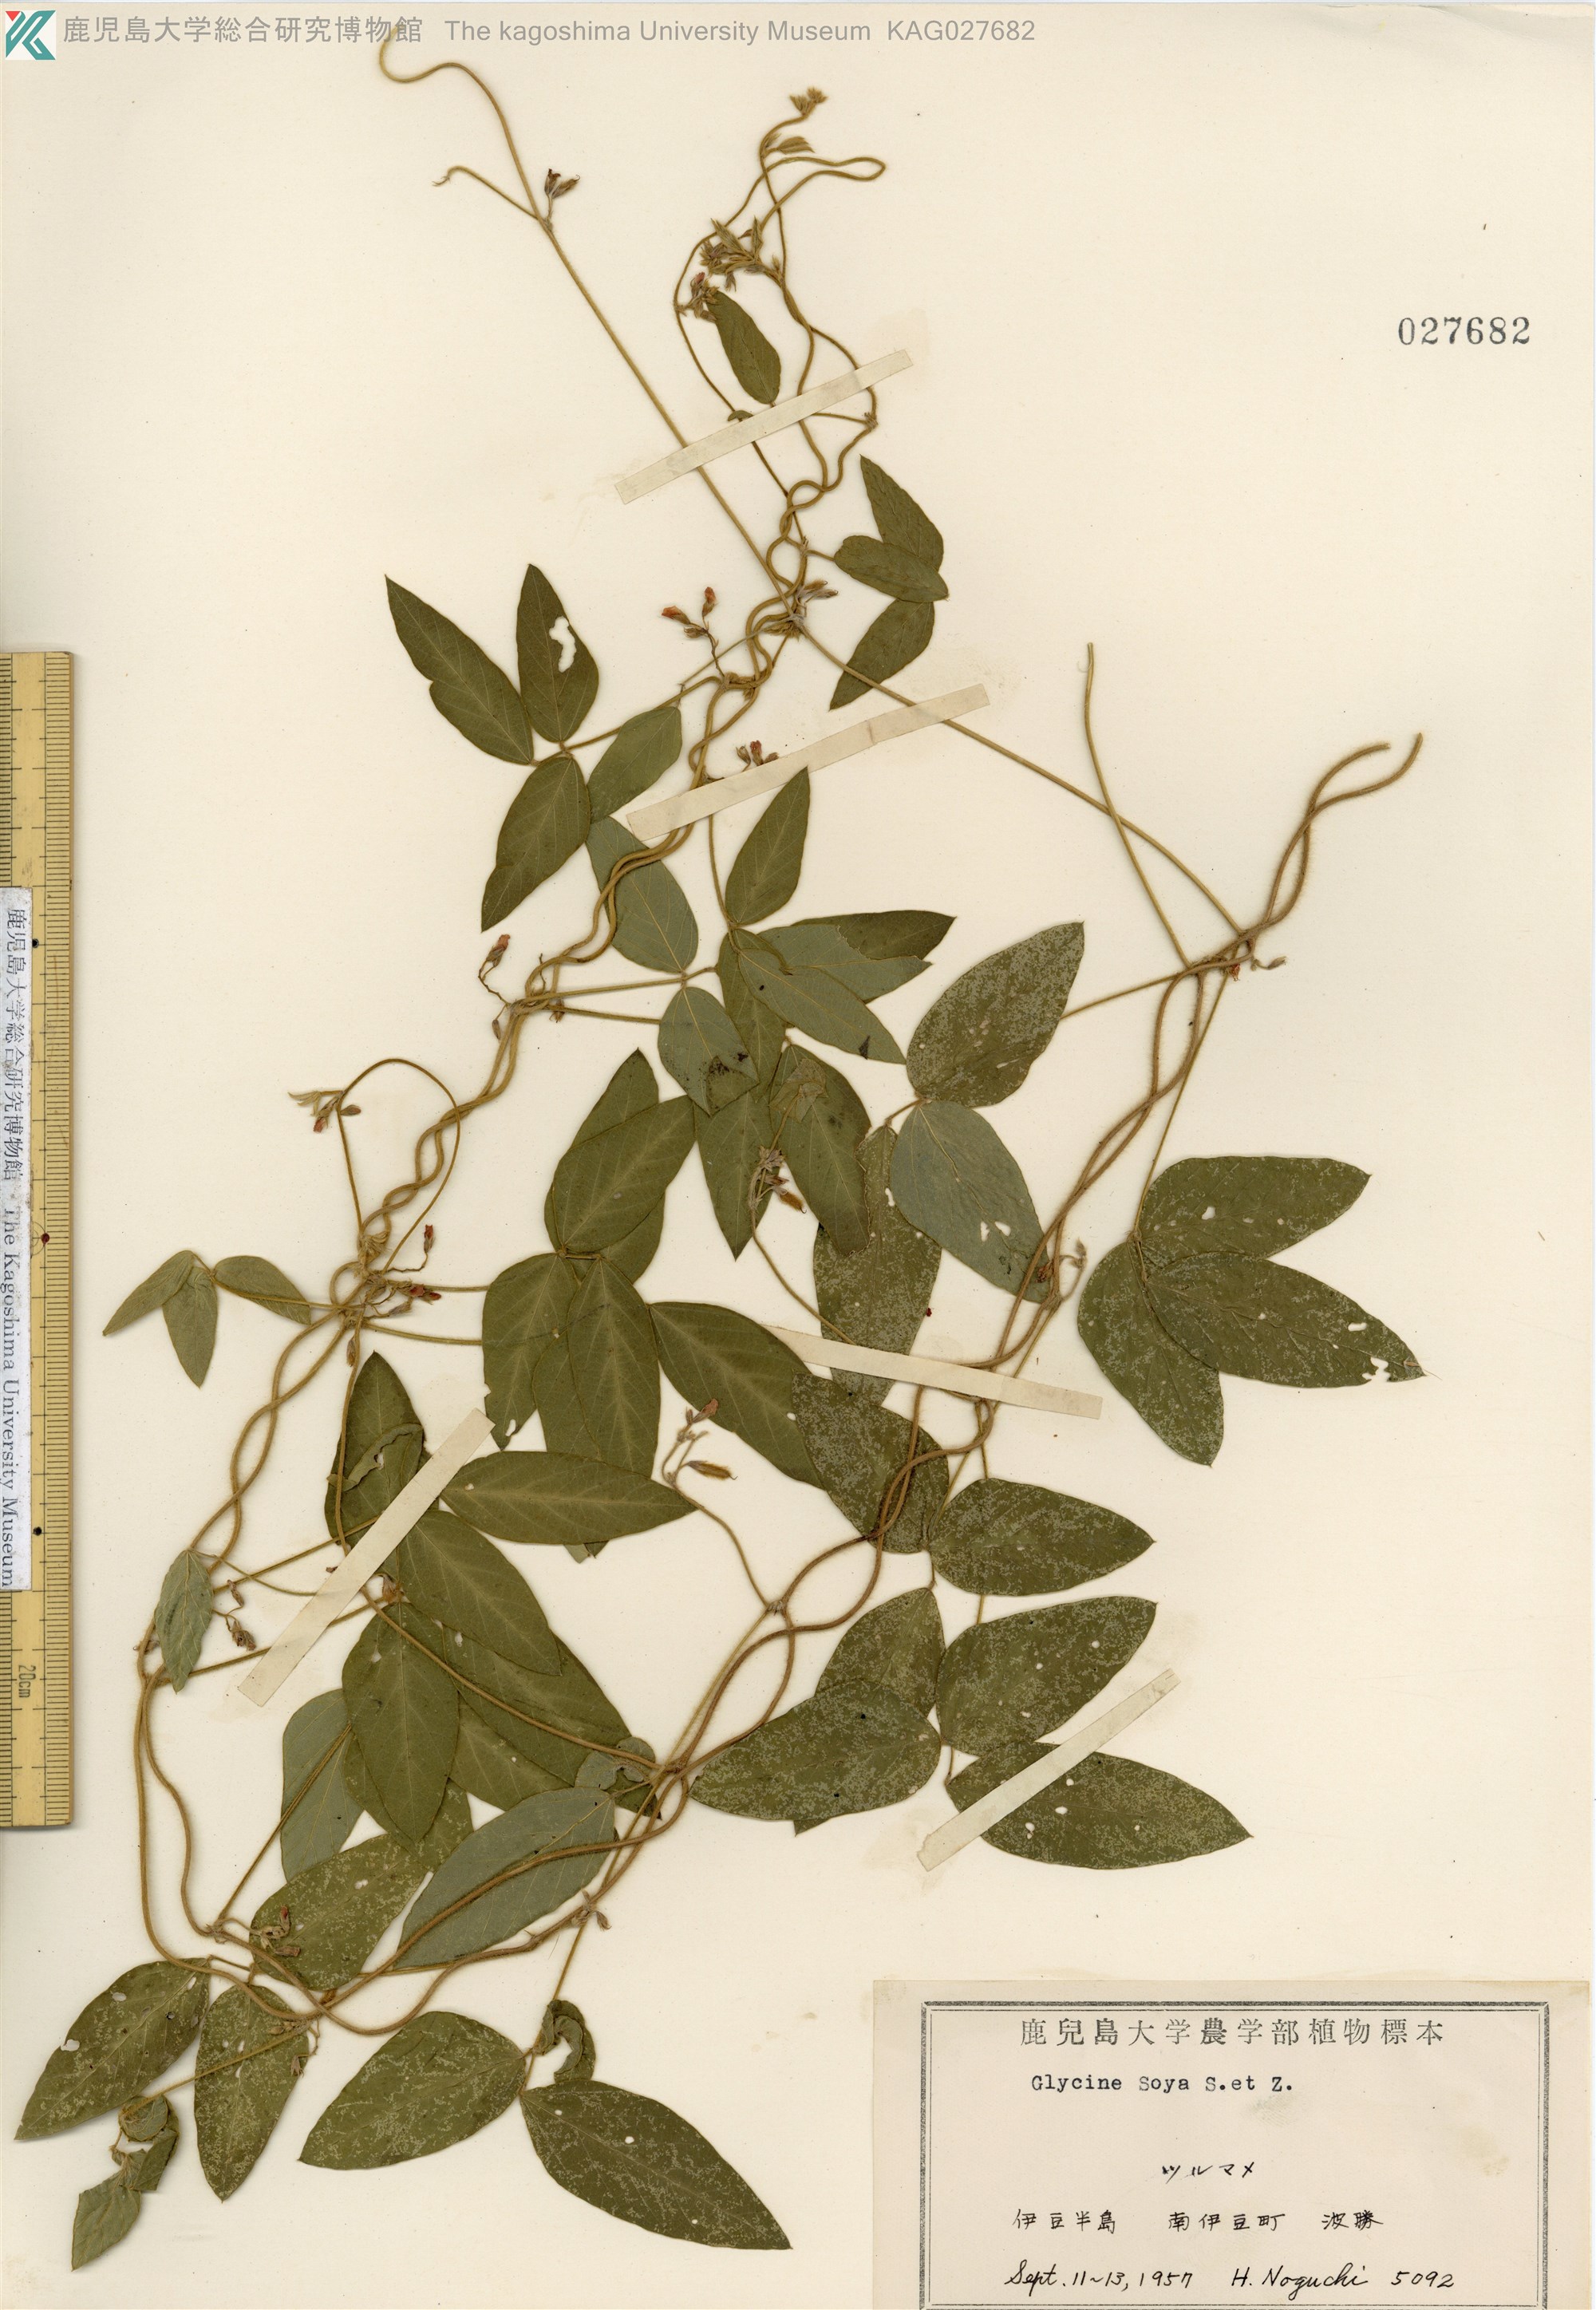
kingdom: Plantae
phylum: Tracheophyta
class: Magnoliopsida
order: Fabales
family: Fabaceae
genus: Glycine
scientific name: Glycine max
